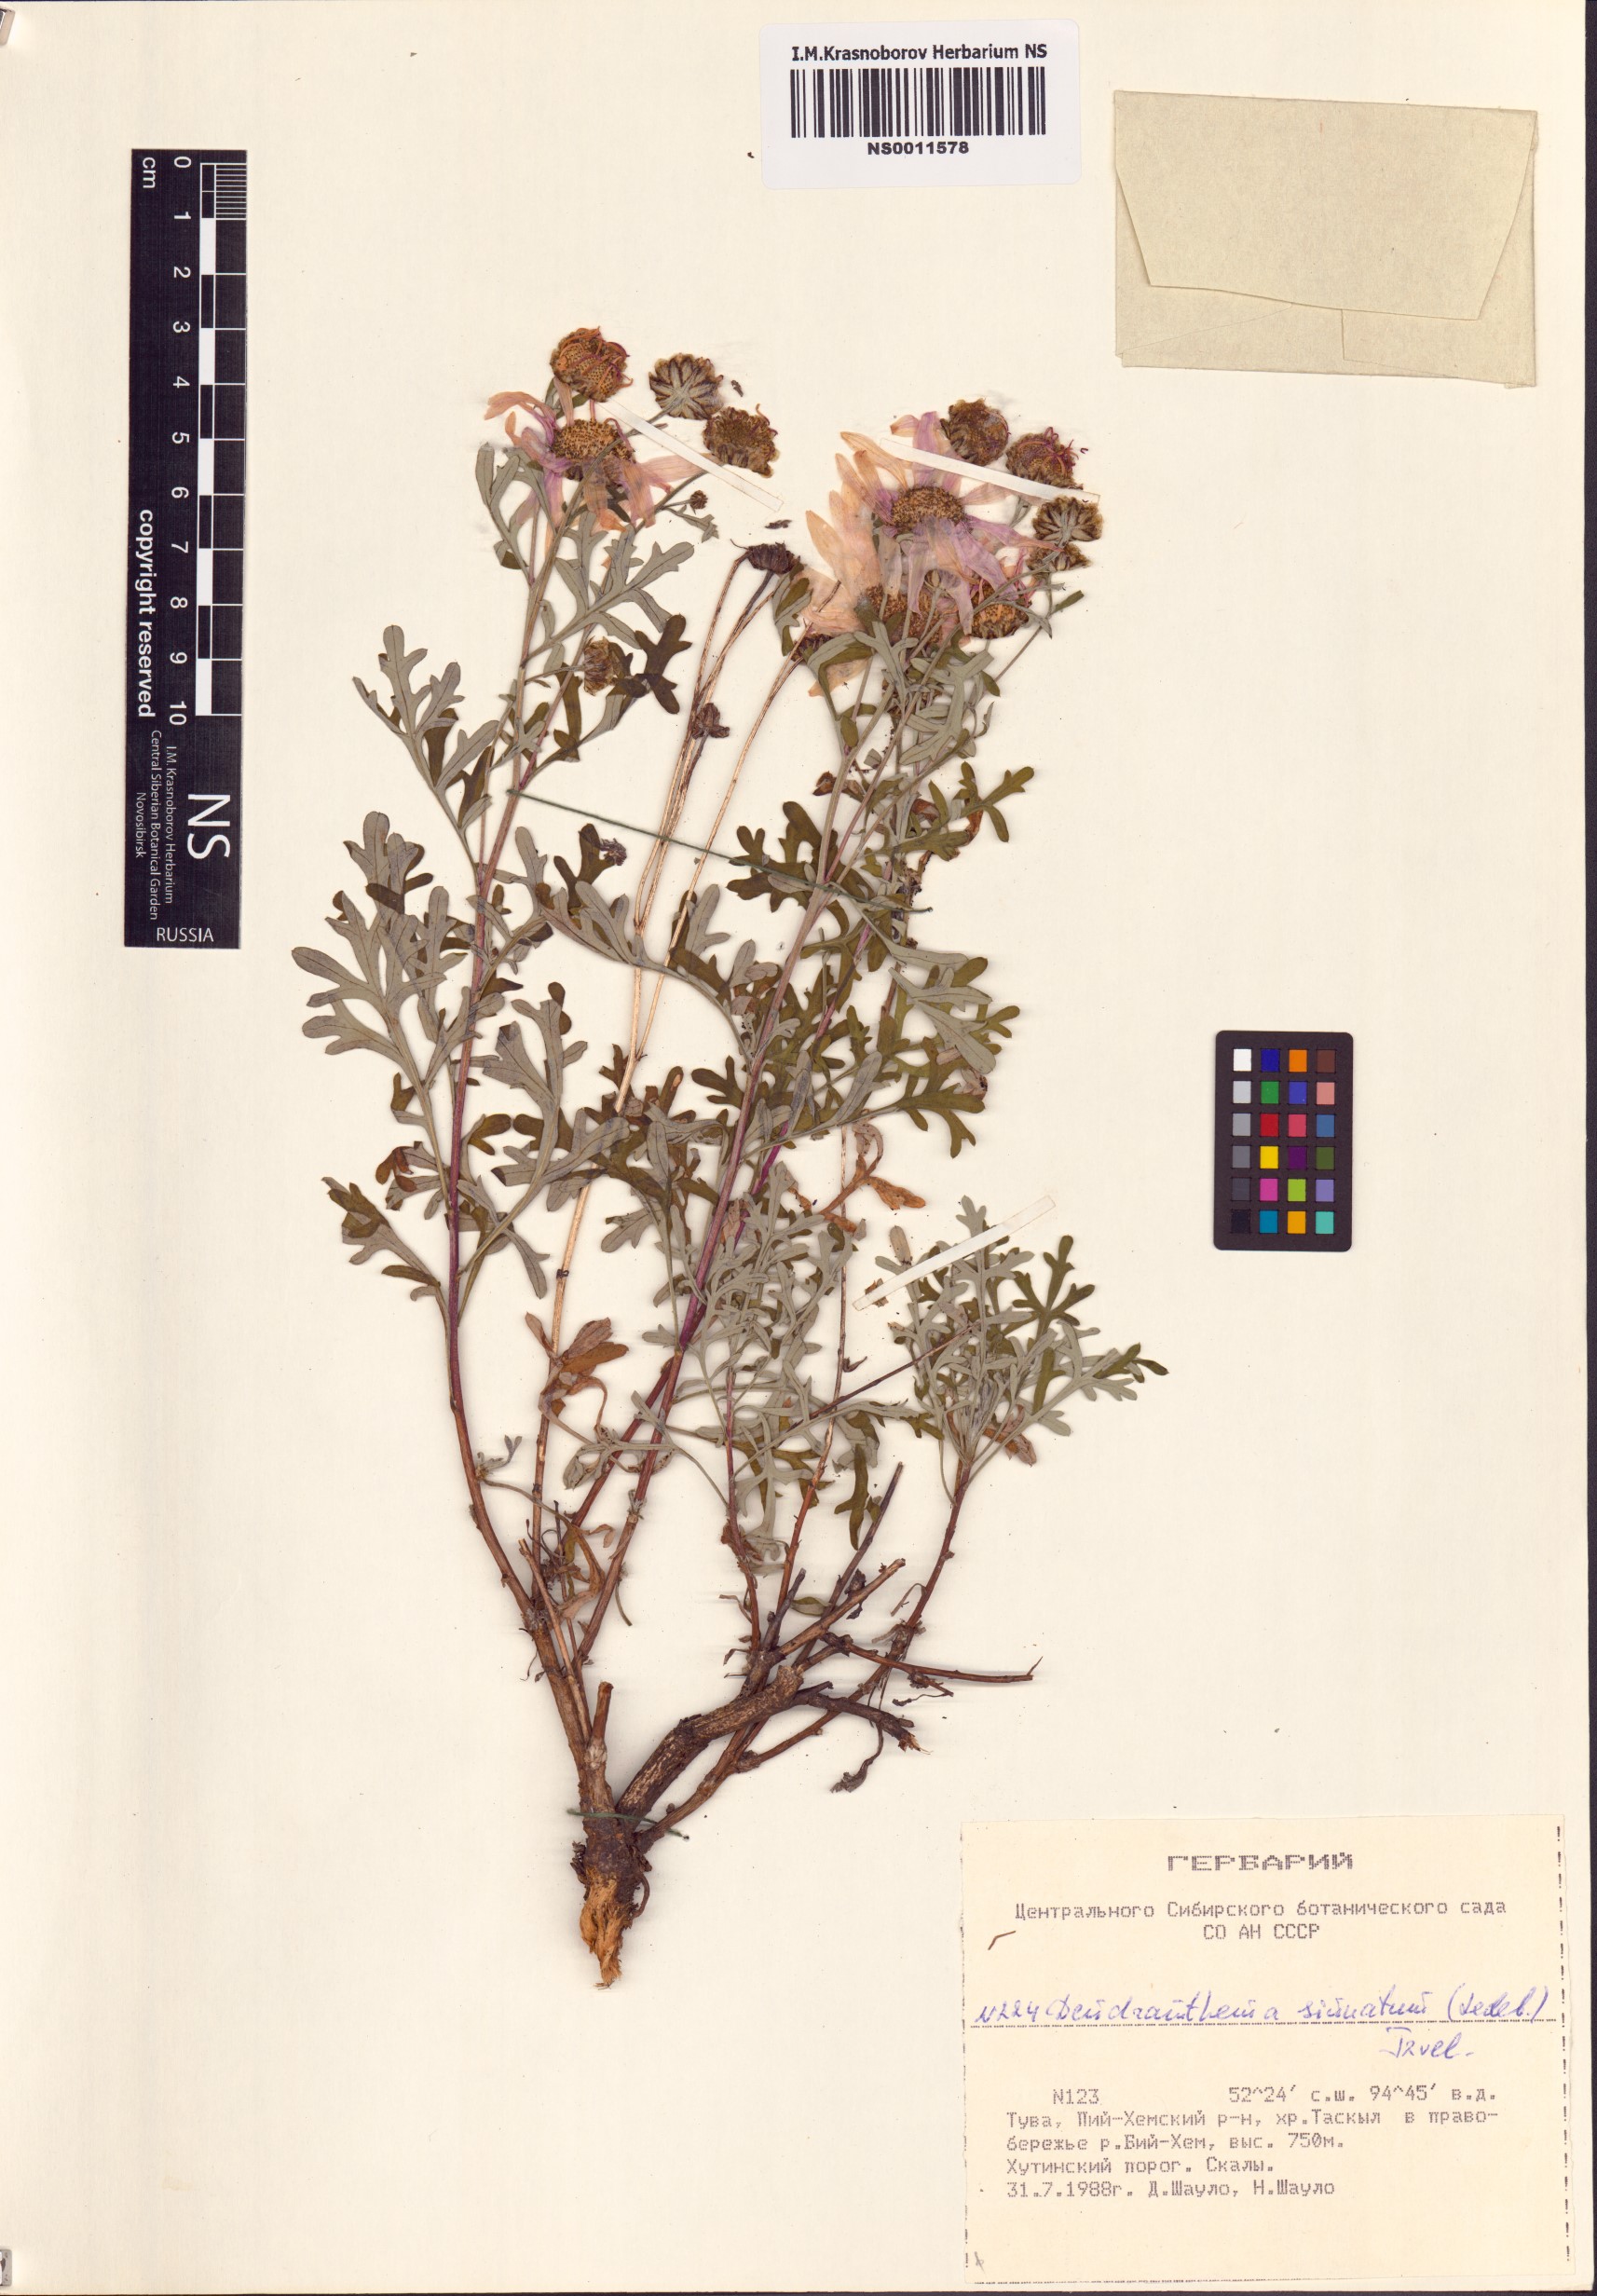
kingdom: Plantae
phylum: Tracheophyta
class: Magnoliopsida
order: Asterales
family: Asteraceae
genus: Chrysanthemum
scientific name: Chrysanthemum sinuatum
